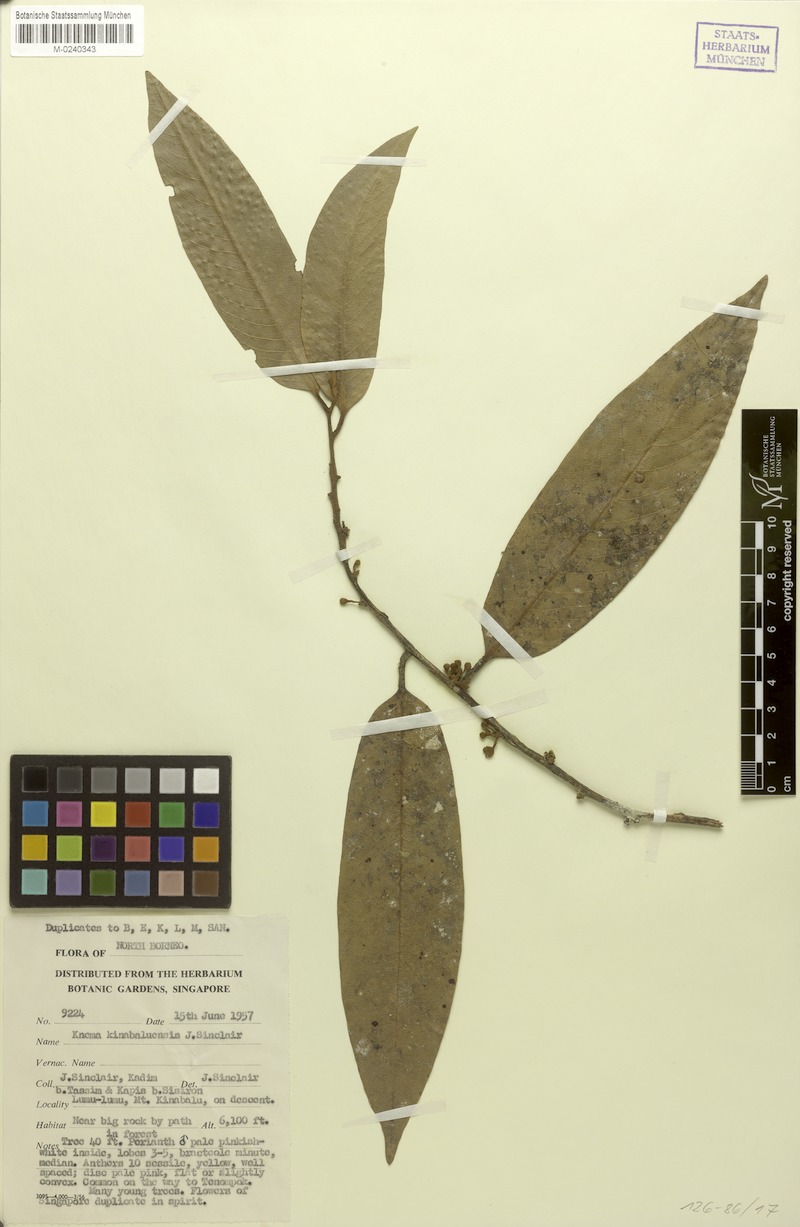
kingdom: Plantae
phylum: Tracheophyta
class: Magnoliopsida
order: Magnoliales
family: Myristicaceae
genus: Knema
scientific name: Knema kinabaluensis
